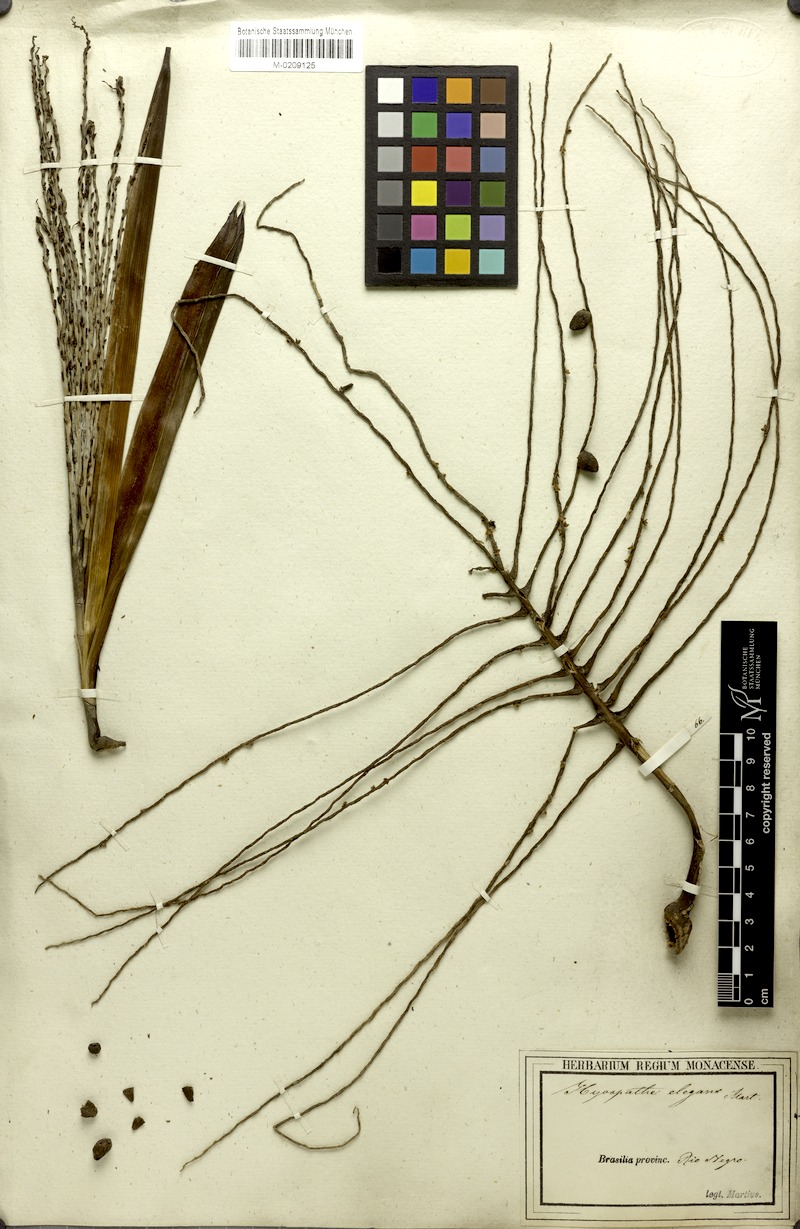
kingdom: Plantae
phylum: Tracheophyta
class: Liliopsida
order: Arecales
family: Arecaceae
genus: Hyospathe
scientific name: Hyospathe elegans
